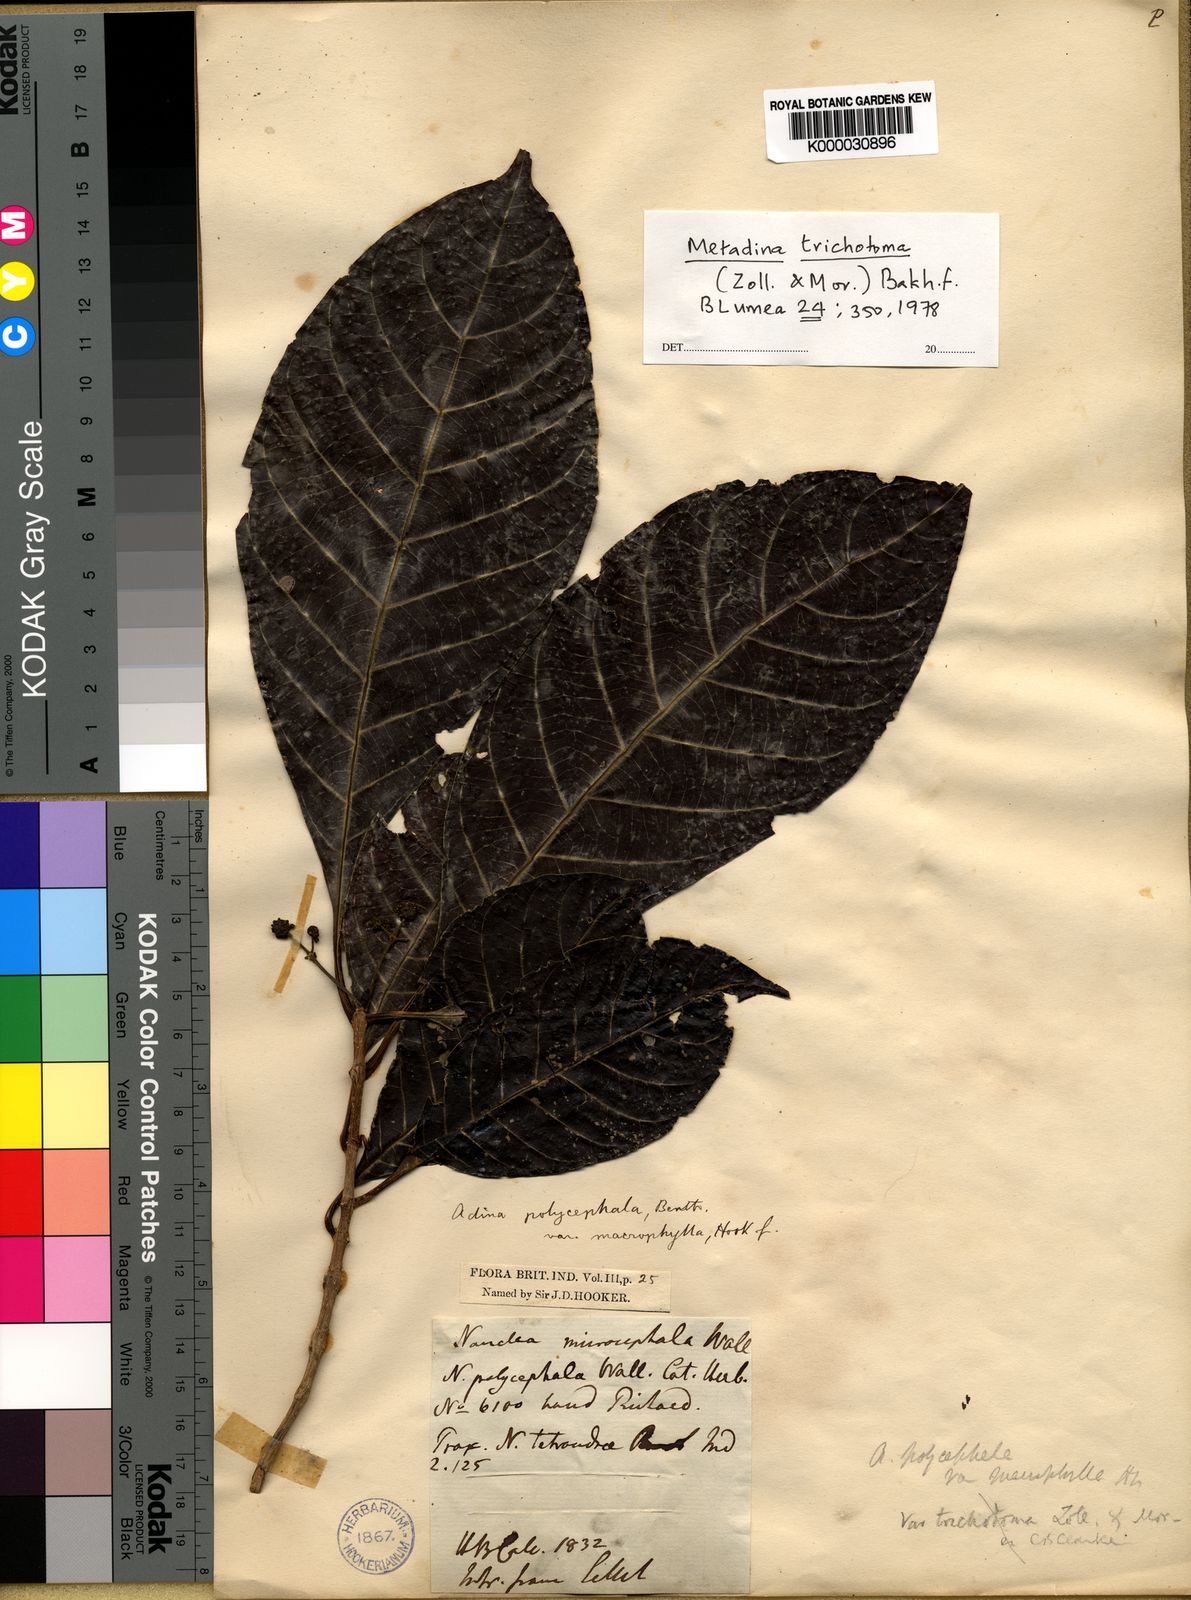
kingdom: Plantae
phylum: Tracheophyta
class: Magnoliopsida
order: Gentianales
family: Rubiaceae
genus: Adina
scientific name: Adina trichotoma
